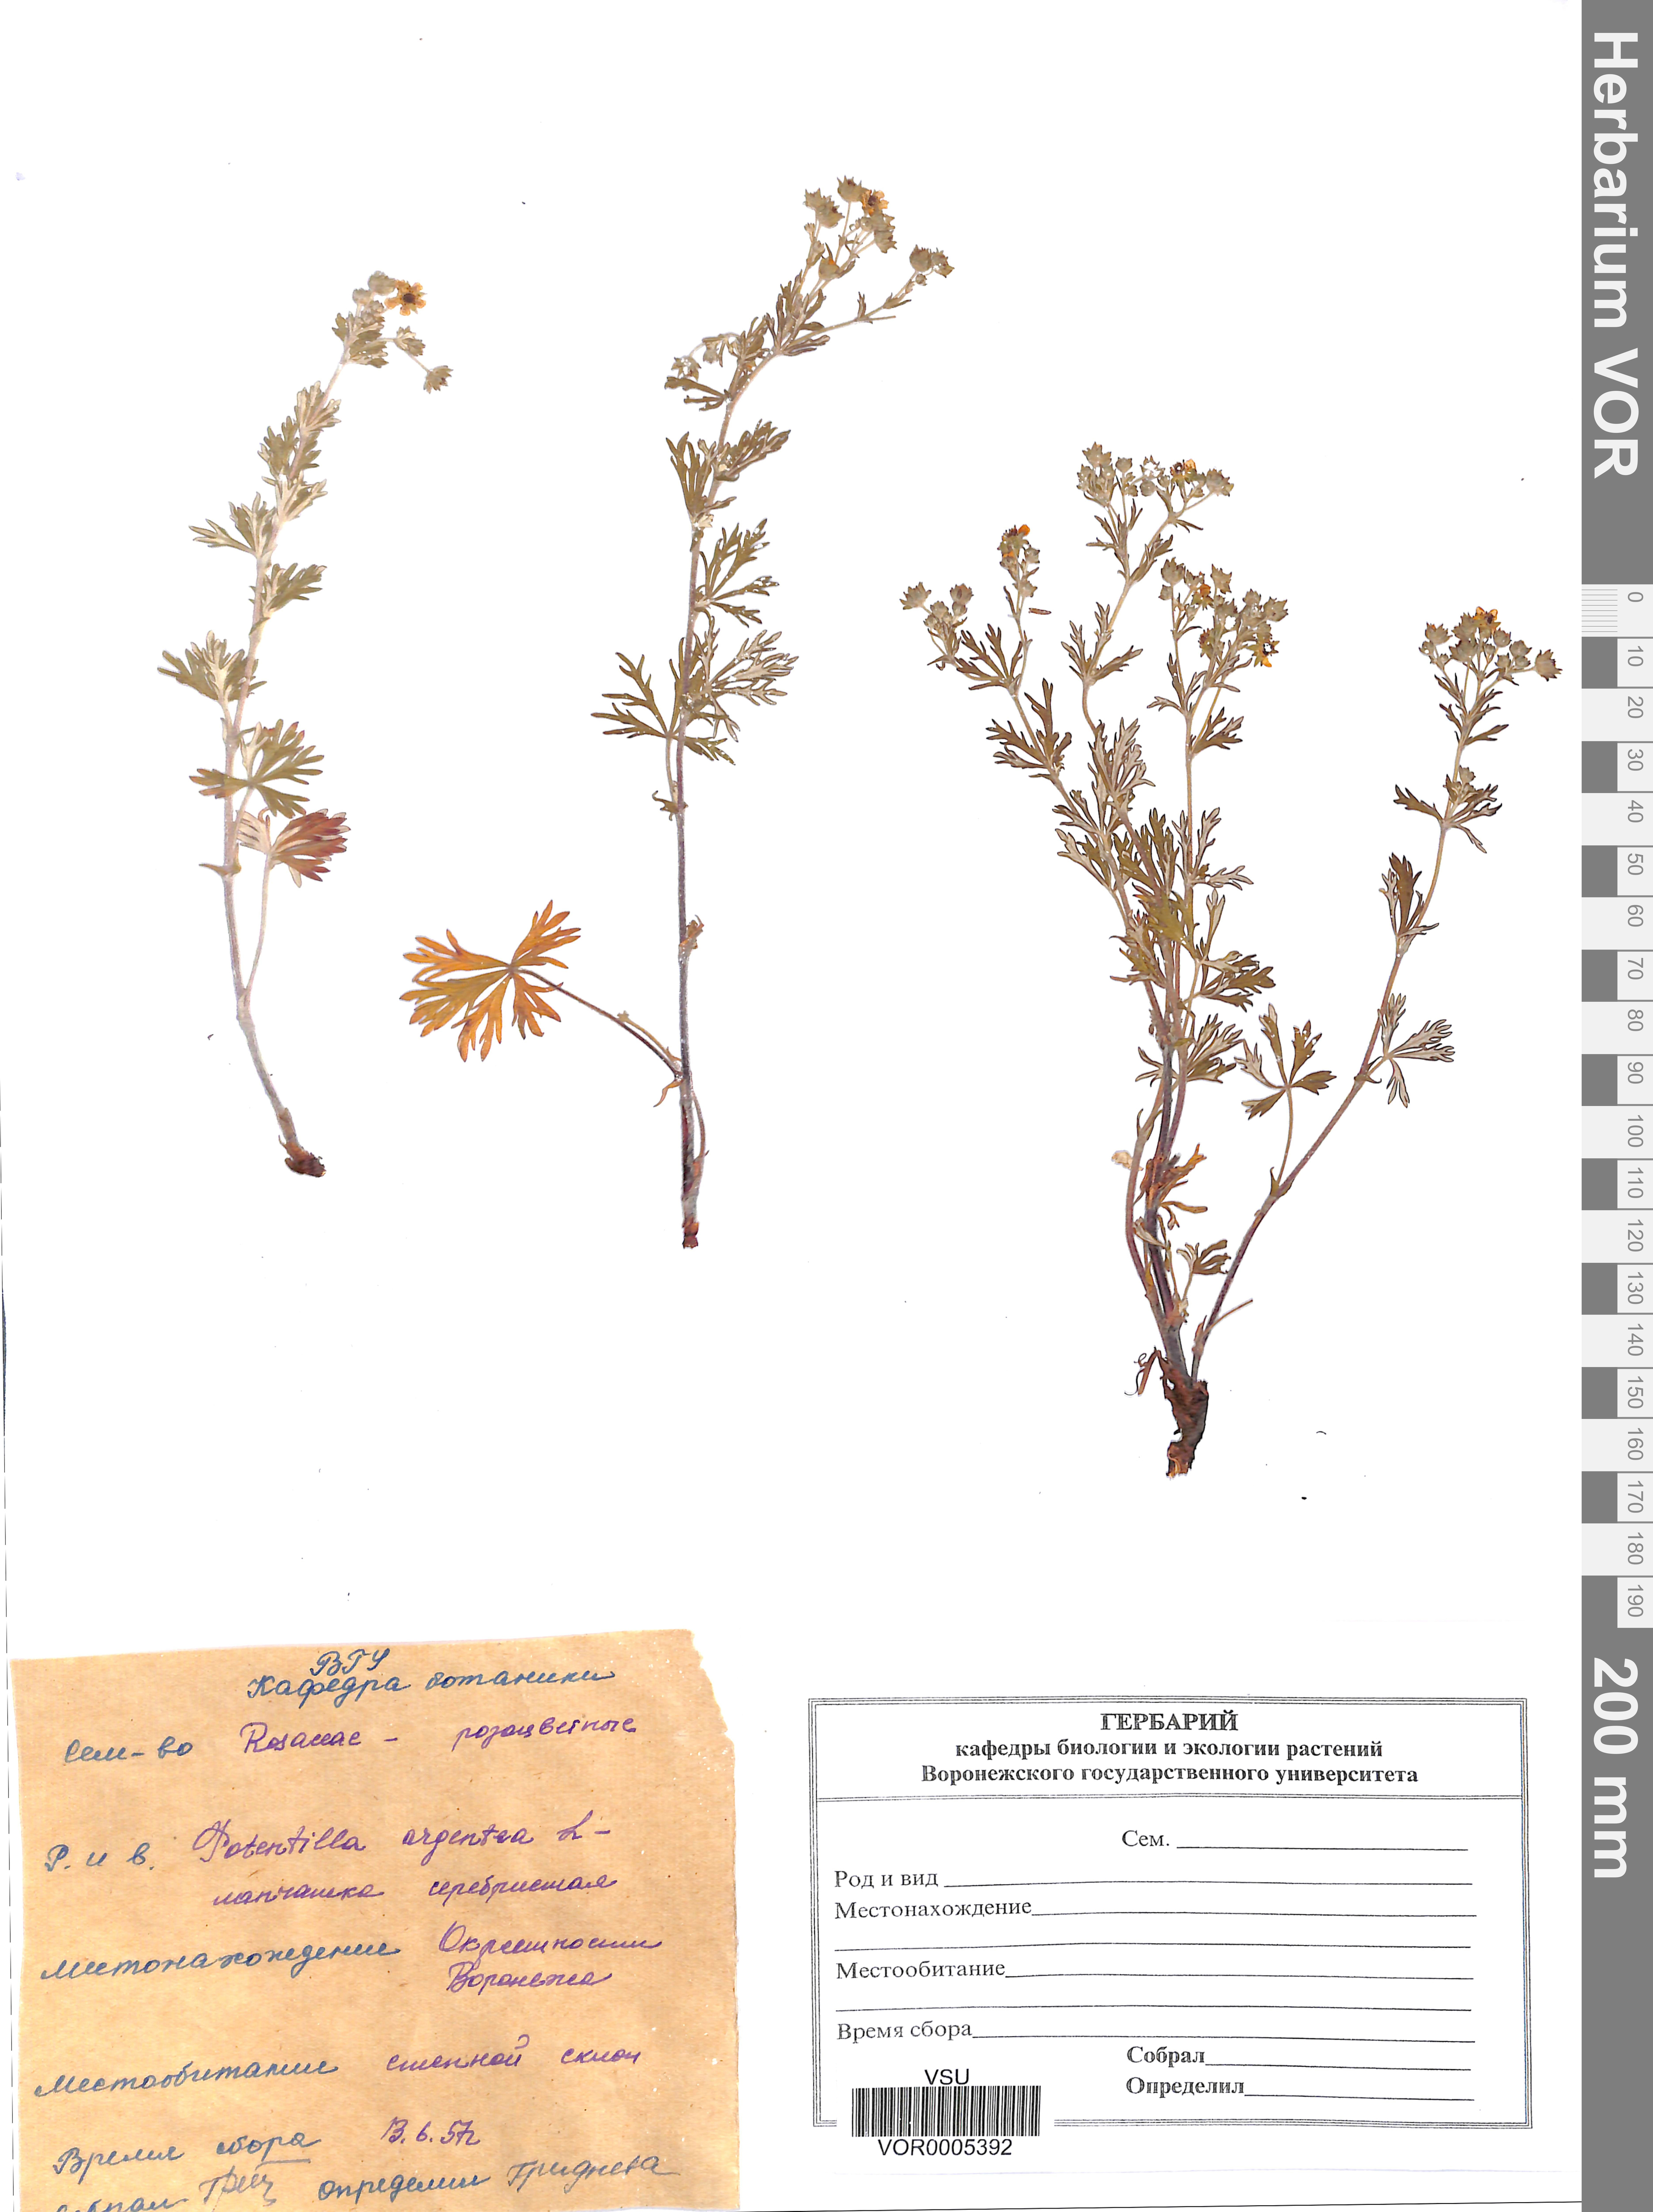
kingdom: Plantae
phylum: Tracheophyta
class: Magnoliopsida
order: Rosales
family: Rosaceae
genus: Potentilla
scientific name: Potentilla argentea
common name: Hoary cinquefoil
